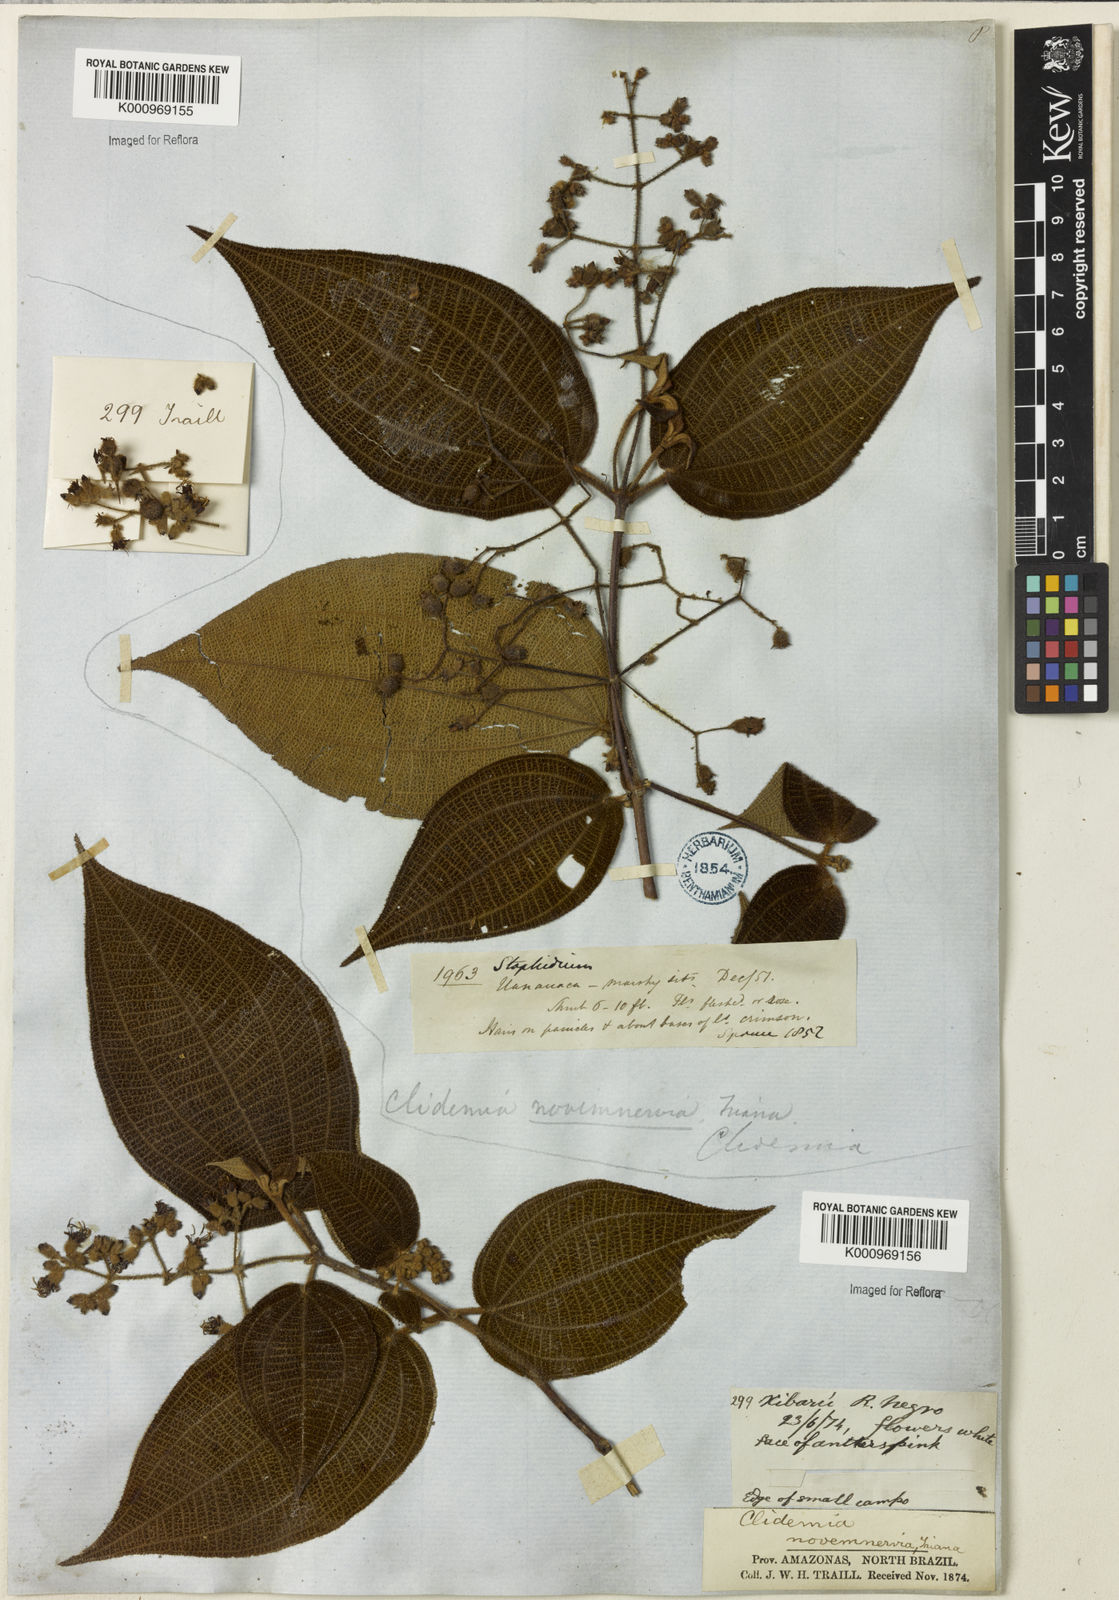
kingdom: Plantae
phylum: Tracheophyta
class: Magnoliopsida
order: Myrtales
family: Melastomataceae
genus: Miconia
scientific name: Miconia bullatifolia
